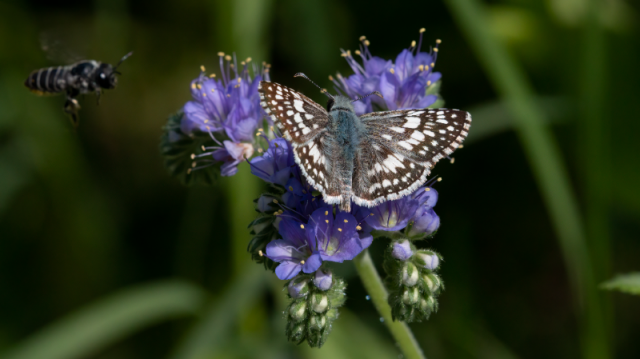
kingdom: Animalia
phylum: Arthropoda
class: Insecta
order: Lepidoptera
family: Hesperiidae
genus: Pyrgus
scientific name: Pyrgus communis
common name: Common Checkered-Skipper
